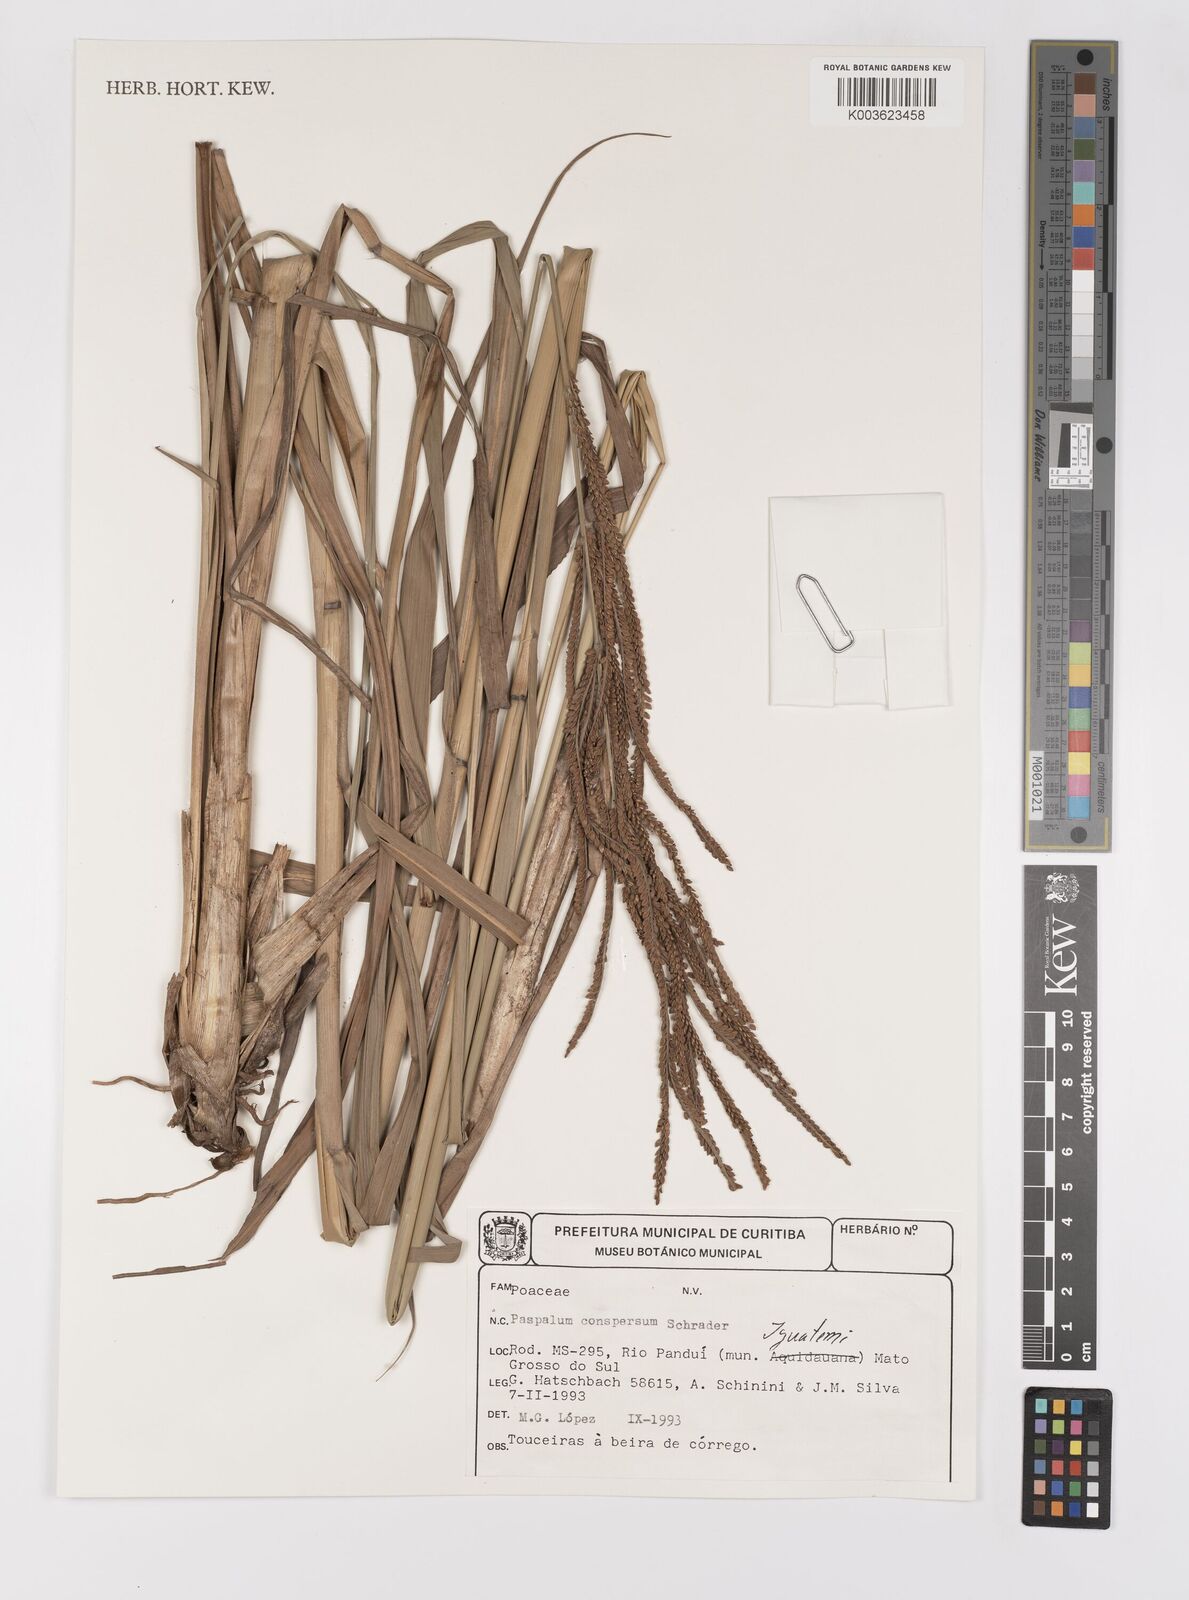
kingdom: Plantae
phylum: Tracheophyta
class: Liliopsida
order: Poales
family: Poaceae
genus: Paspalum
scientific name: Paspalum conspersum
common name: Scattered paspalum
